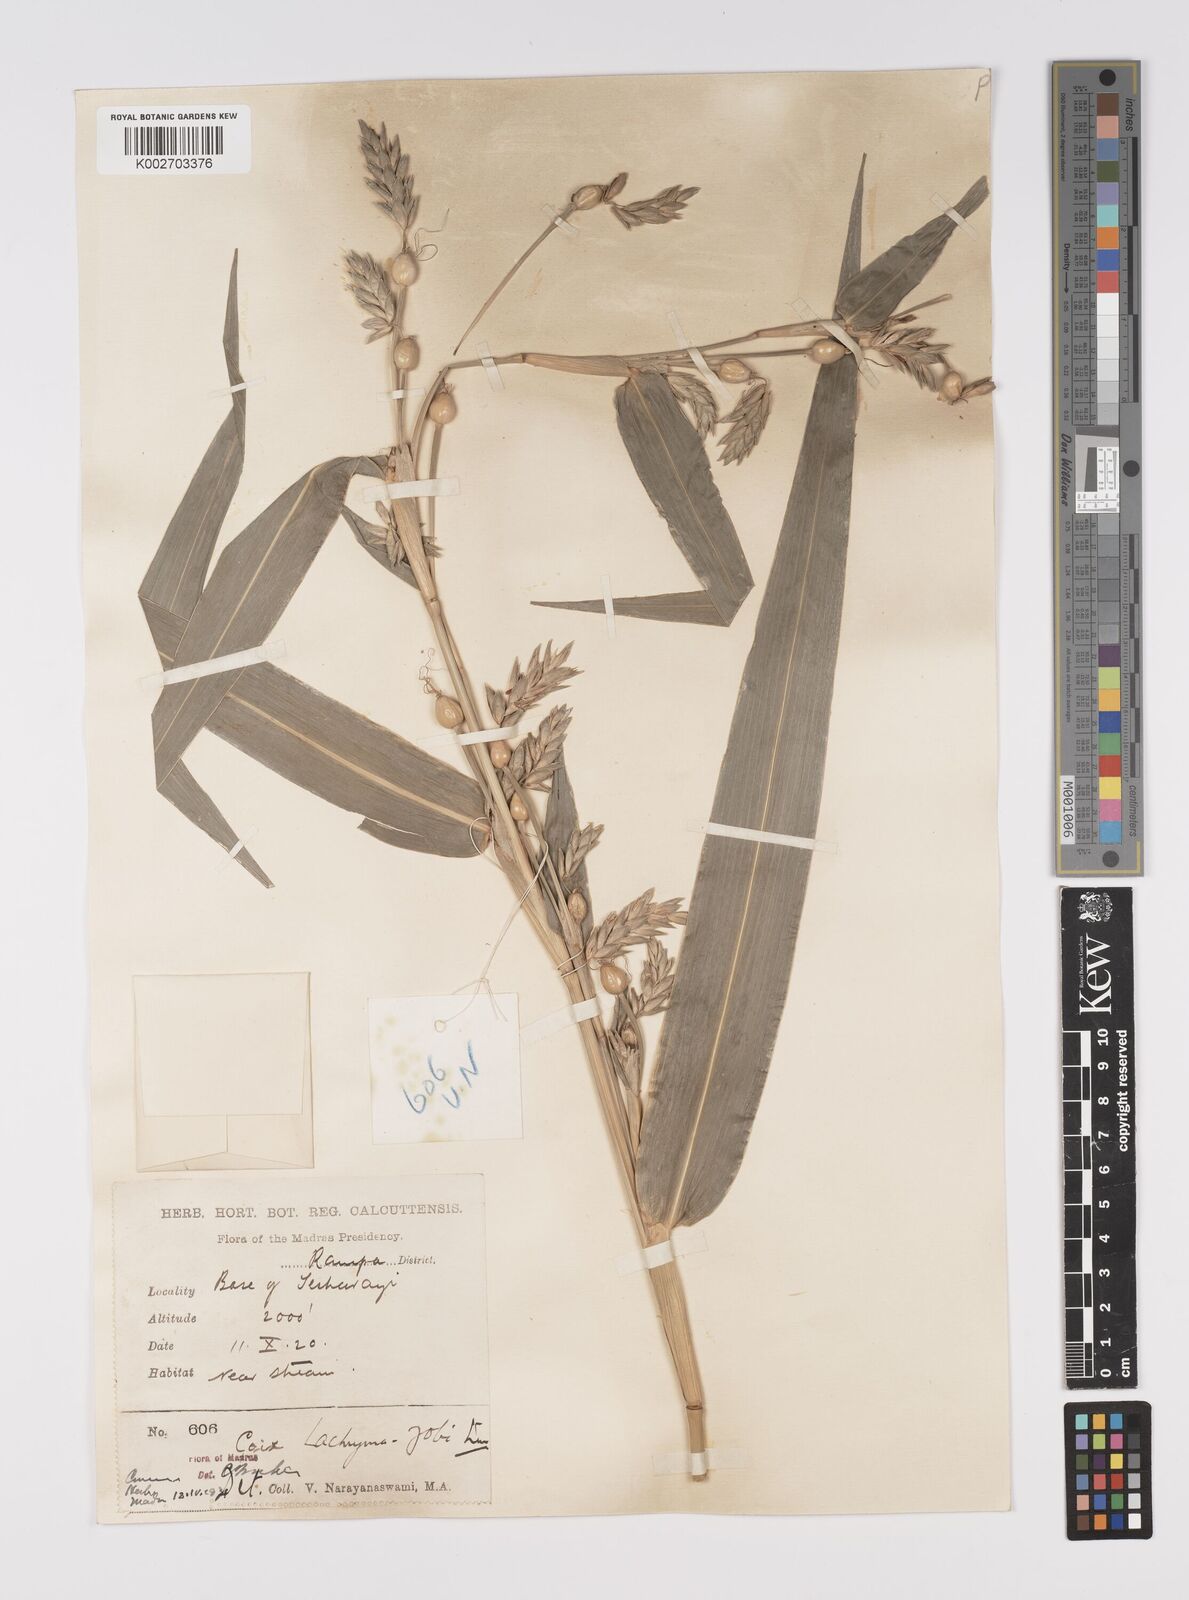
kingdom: Plantae
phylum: Tracheophyta
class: Liliopsida
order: Poales
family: Poaceae
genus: Coix
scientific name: Coix lacryma-jobi
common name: Job's tears
